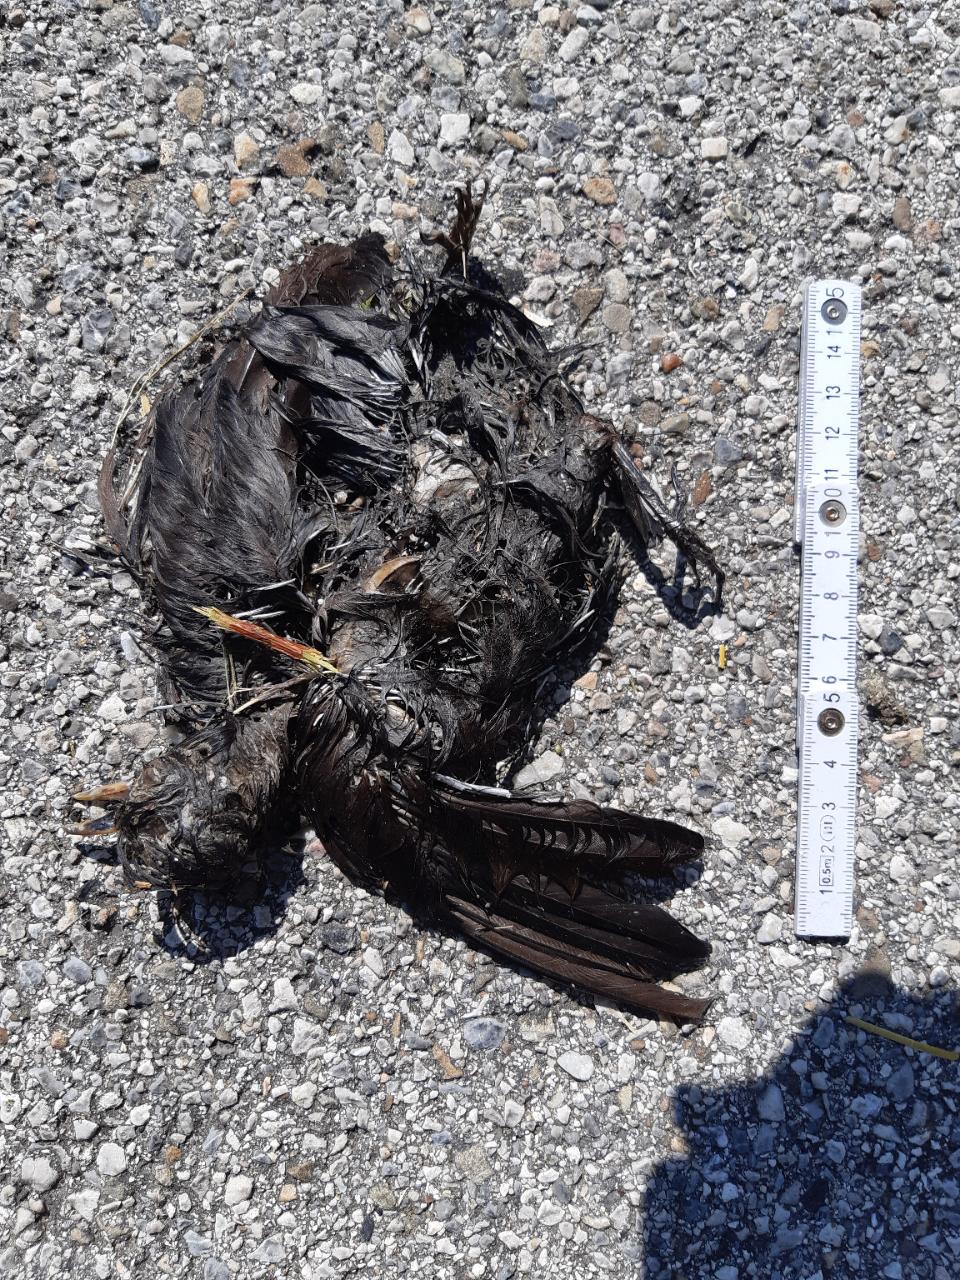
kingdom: Animalia
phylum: Chordata
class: Aves
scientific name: Aves
